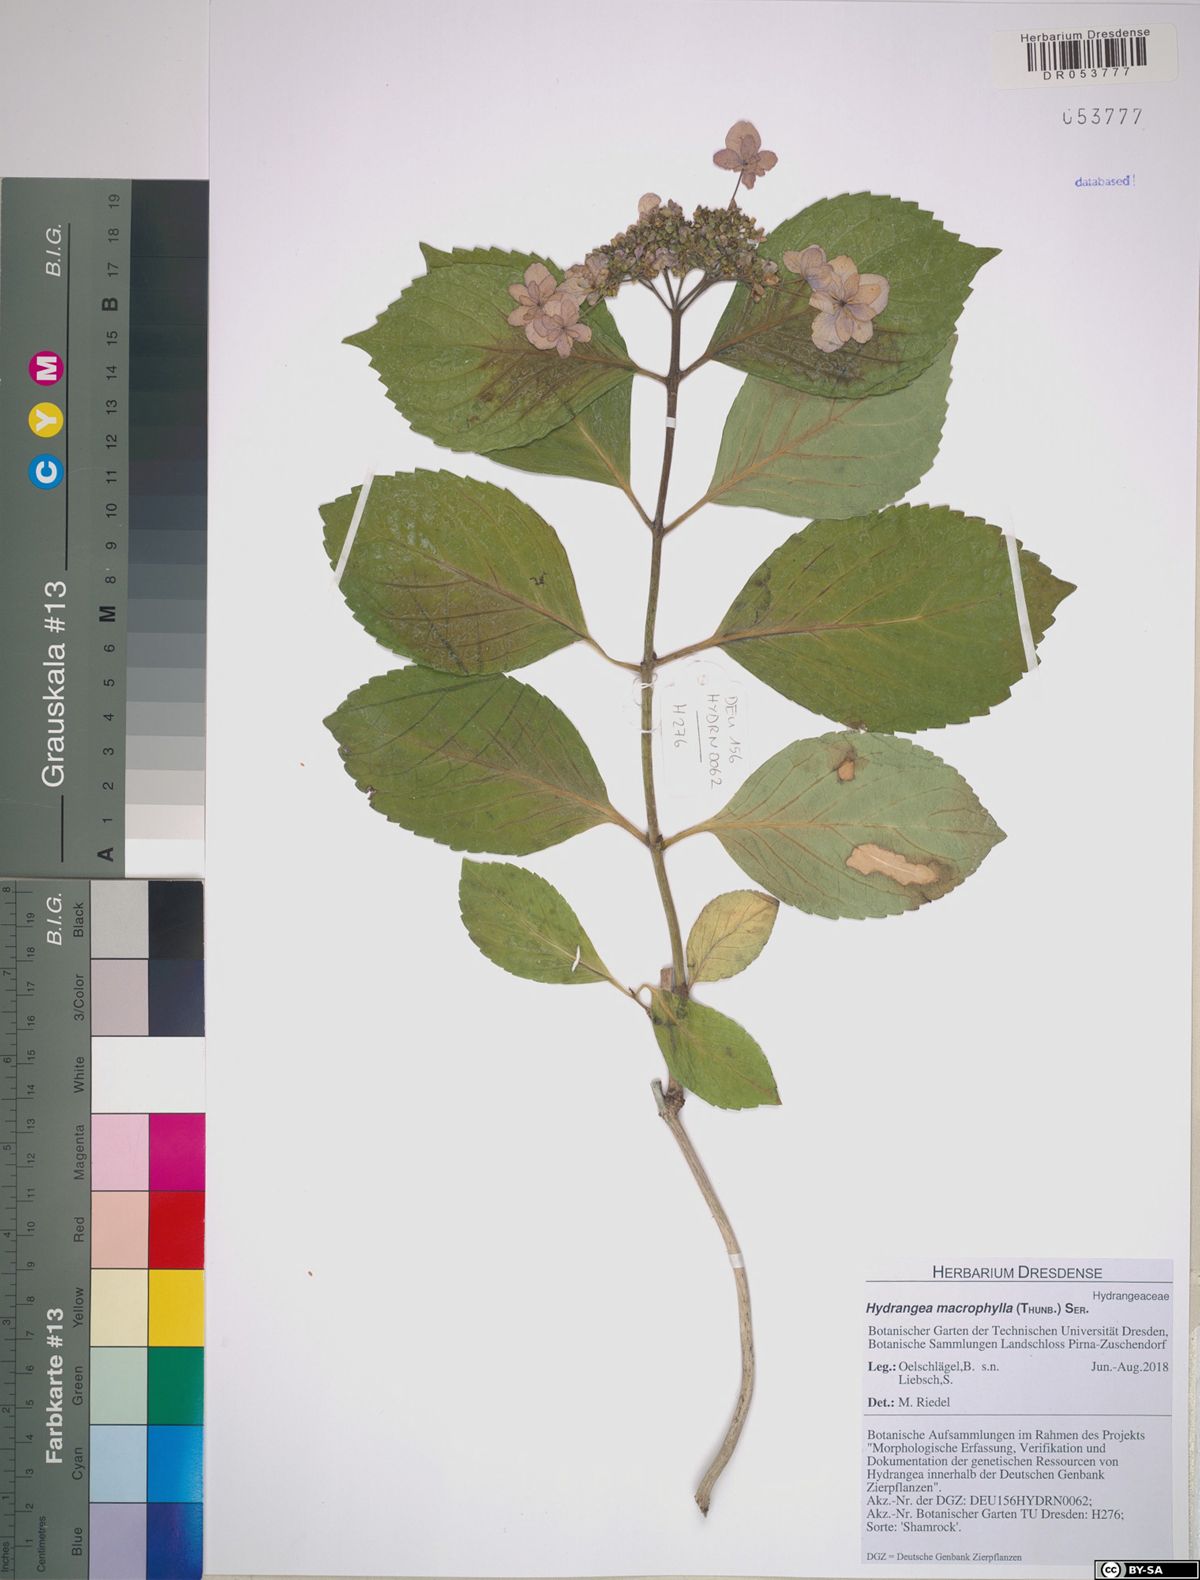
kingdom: Plantae
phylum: Tracheophyta
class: Magnoliopsida
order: Cornales
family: Hydrangeaceae
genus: Hydrangea
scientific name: Hydrangea macrophylla
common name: Hydrangea
